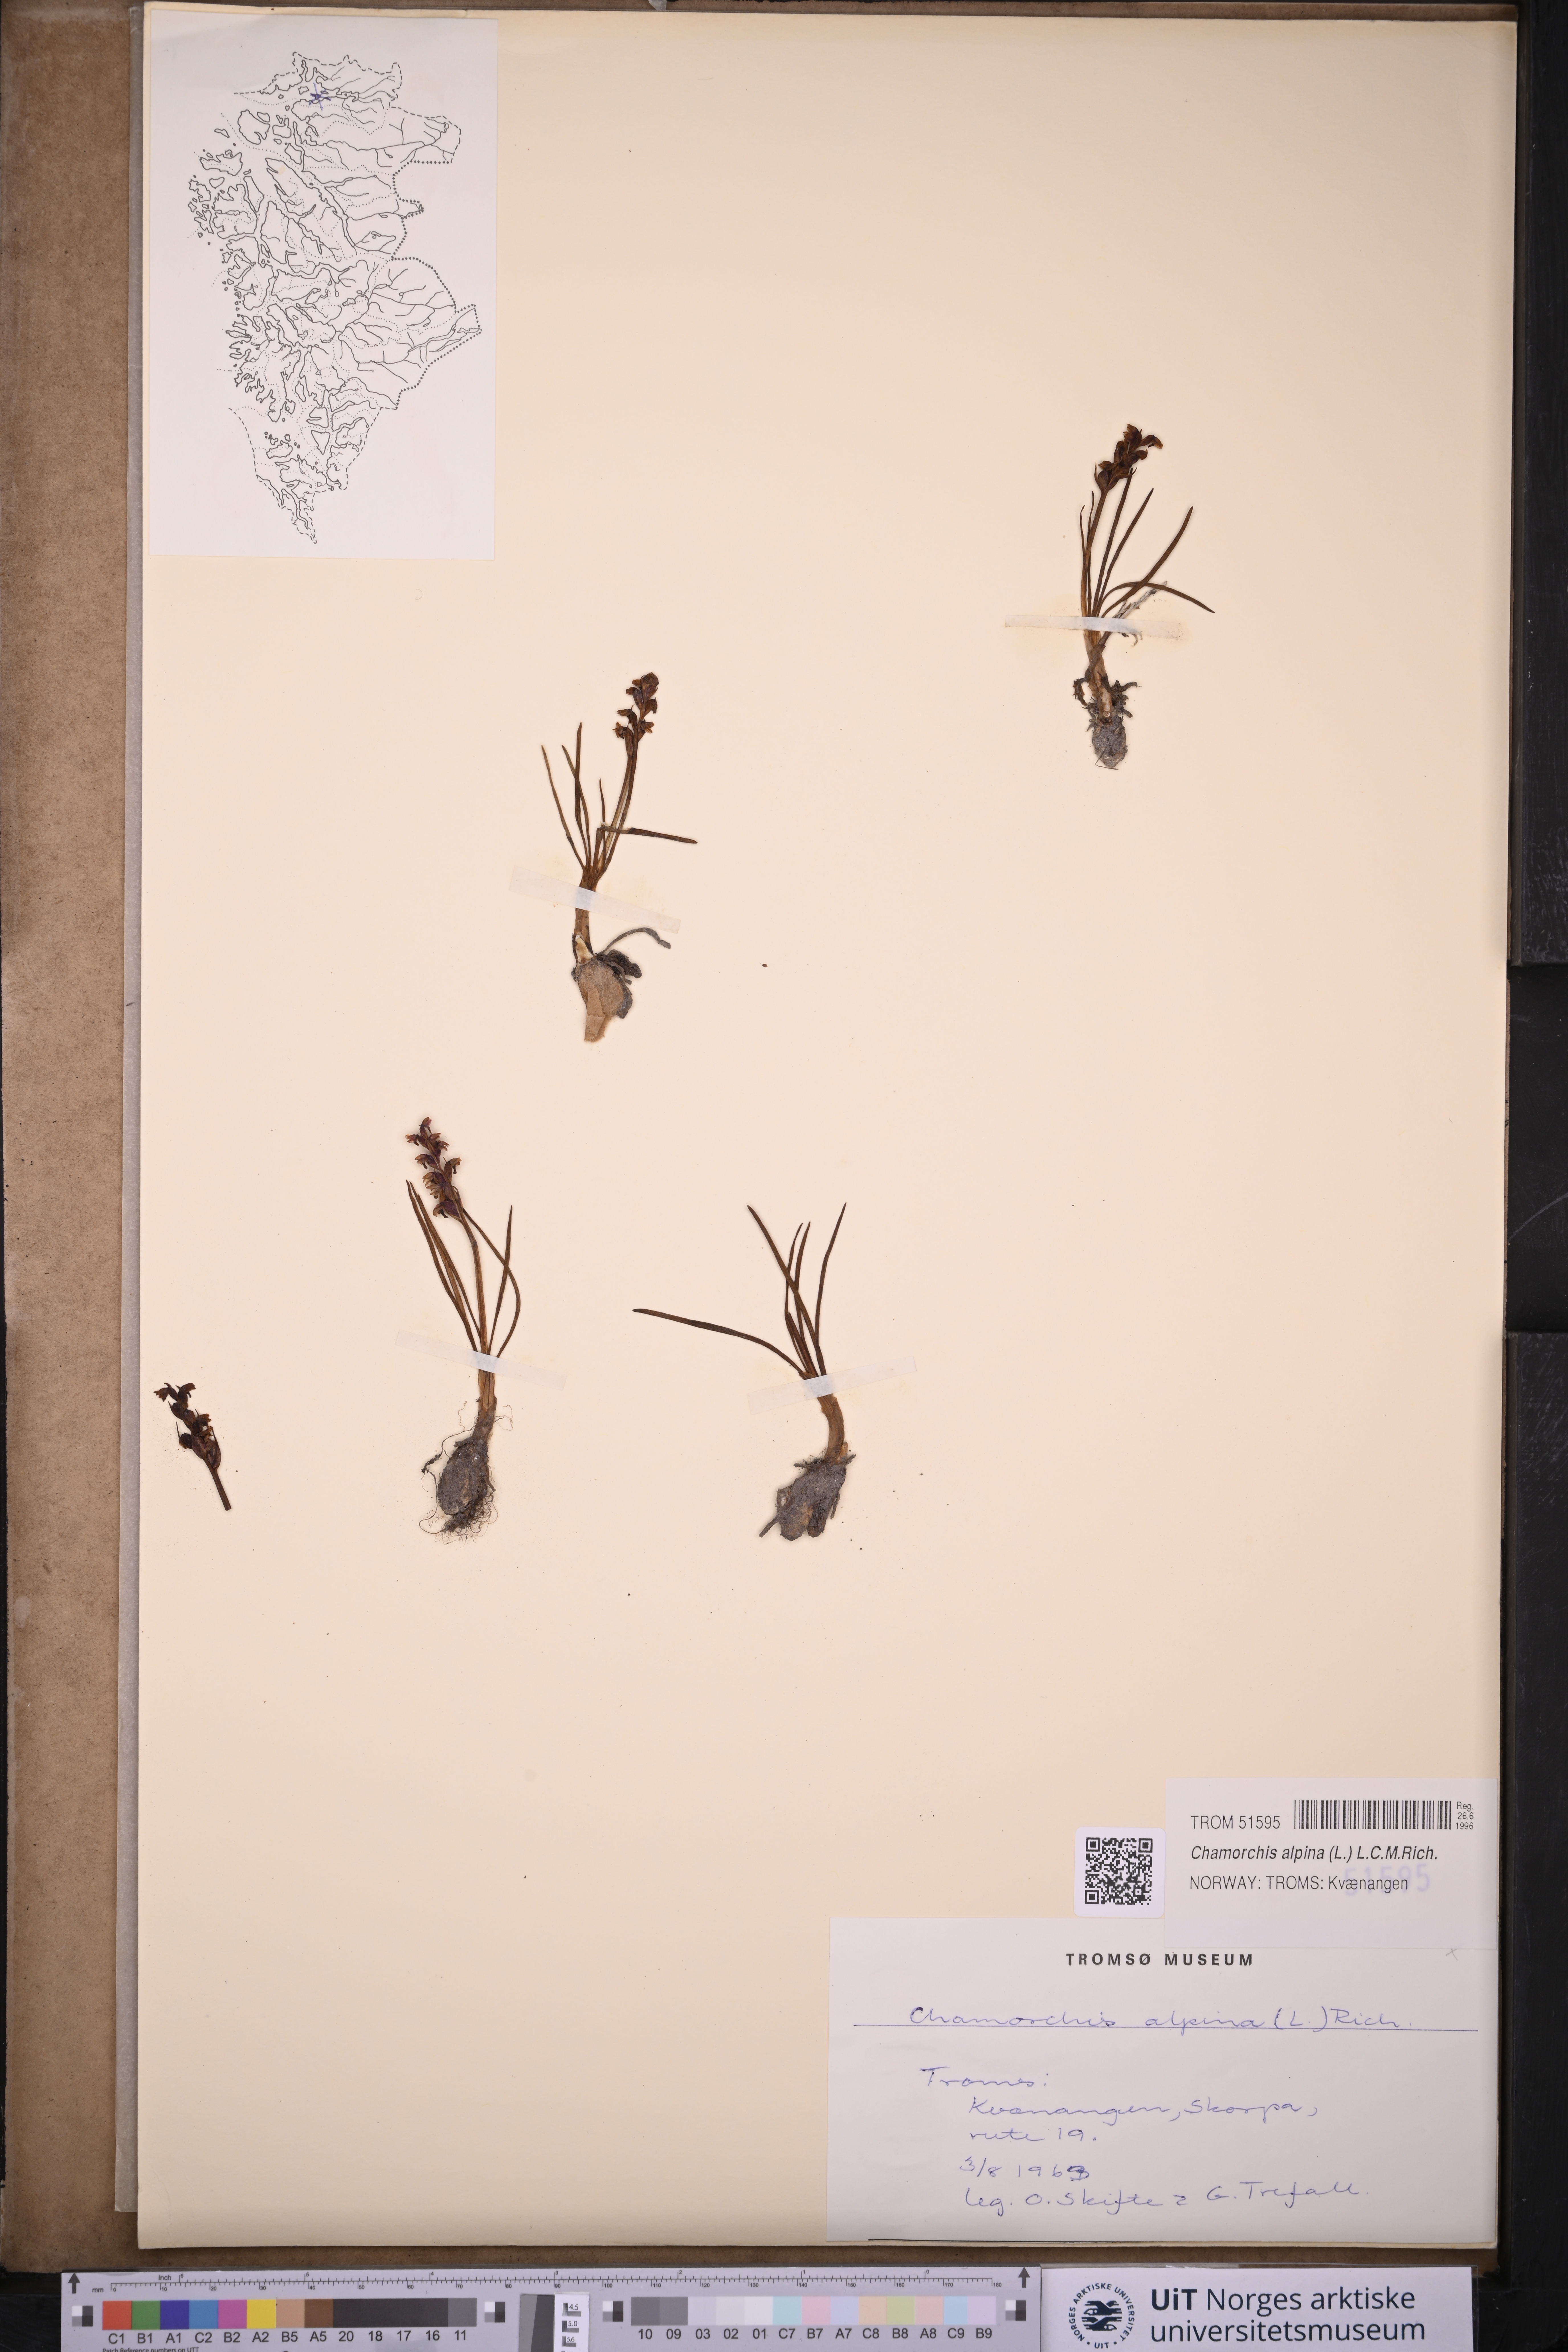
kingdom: Plantae
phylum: Tracheophyta
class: Liliopsida
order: Asparagales
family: Orchidaceae
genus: Chamorchis
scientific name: Chamorchis alpina
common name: Alpine chamorchis
